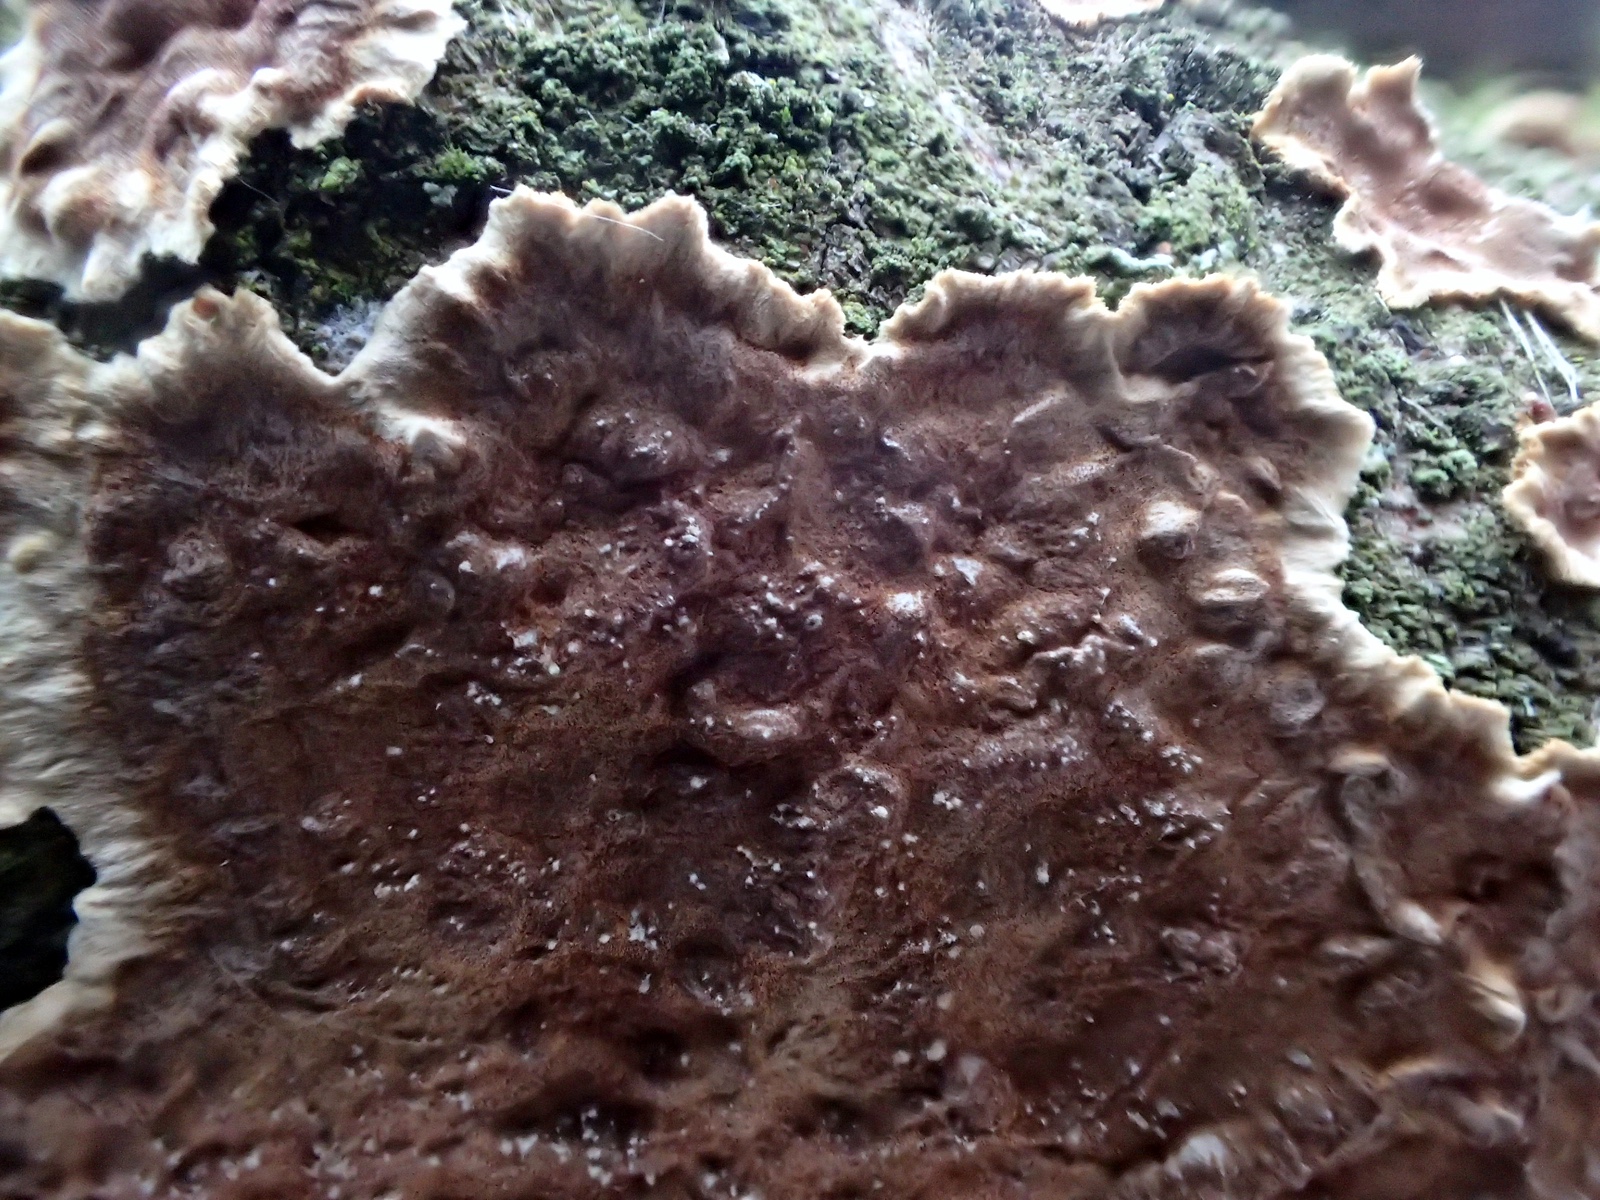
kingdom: Fungi
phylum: Basidiomycota
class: Agaricomycetes
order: Hymenochaetales
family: Hymenochaetaceae
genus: Hydnoporia
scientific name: Hydnoporia tabacina
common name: tobaksbrun ruslædersvamp
